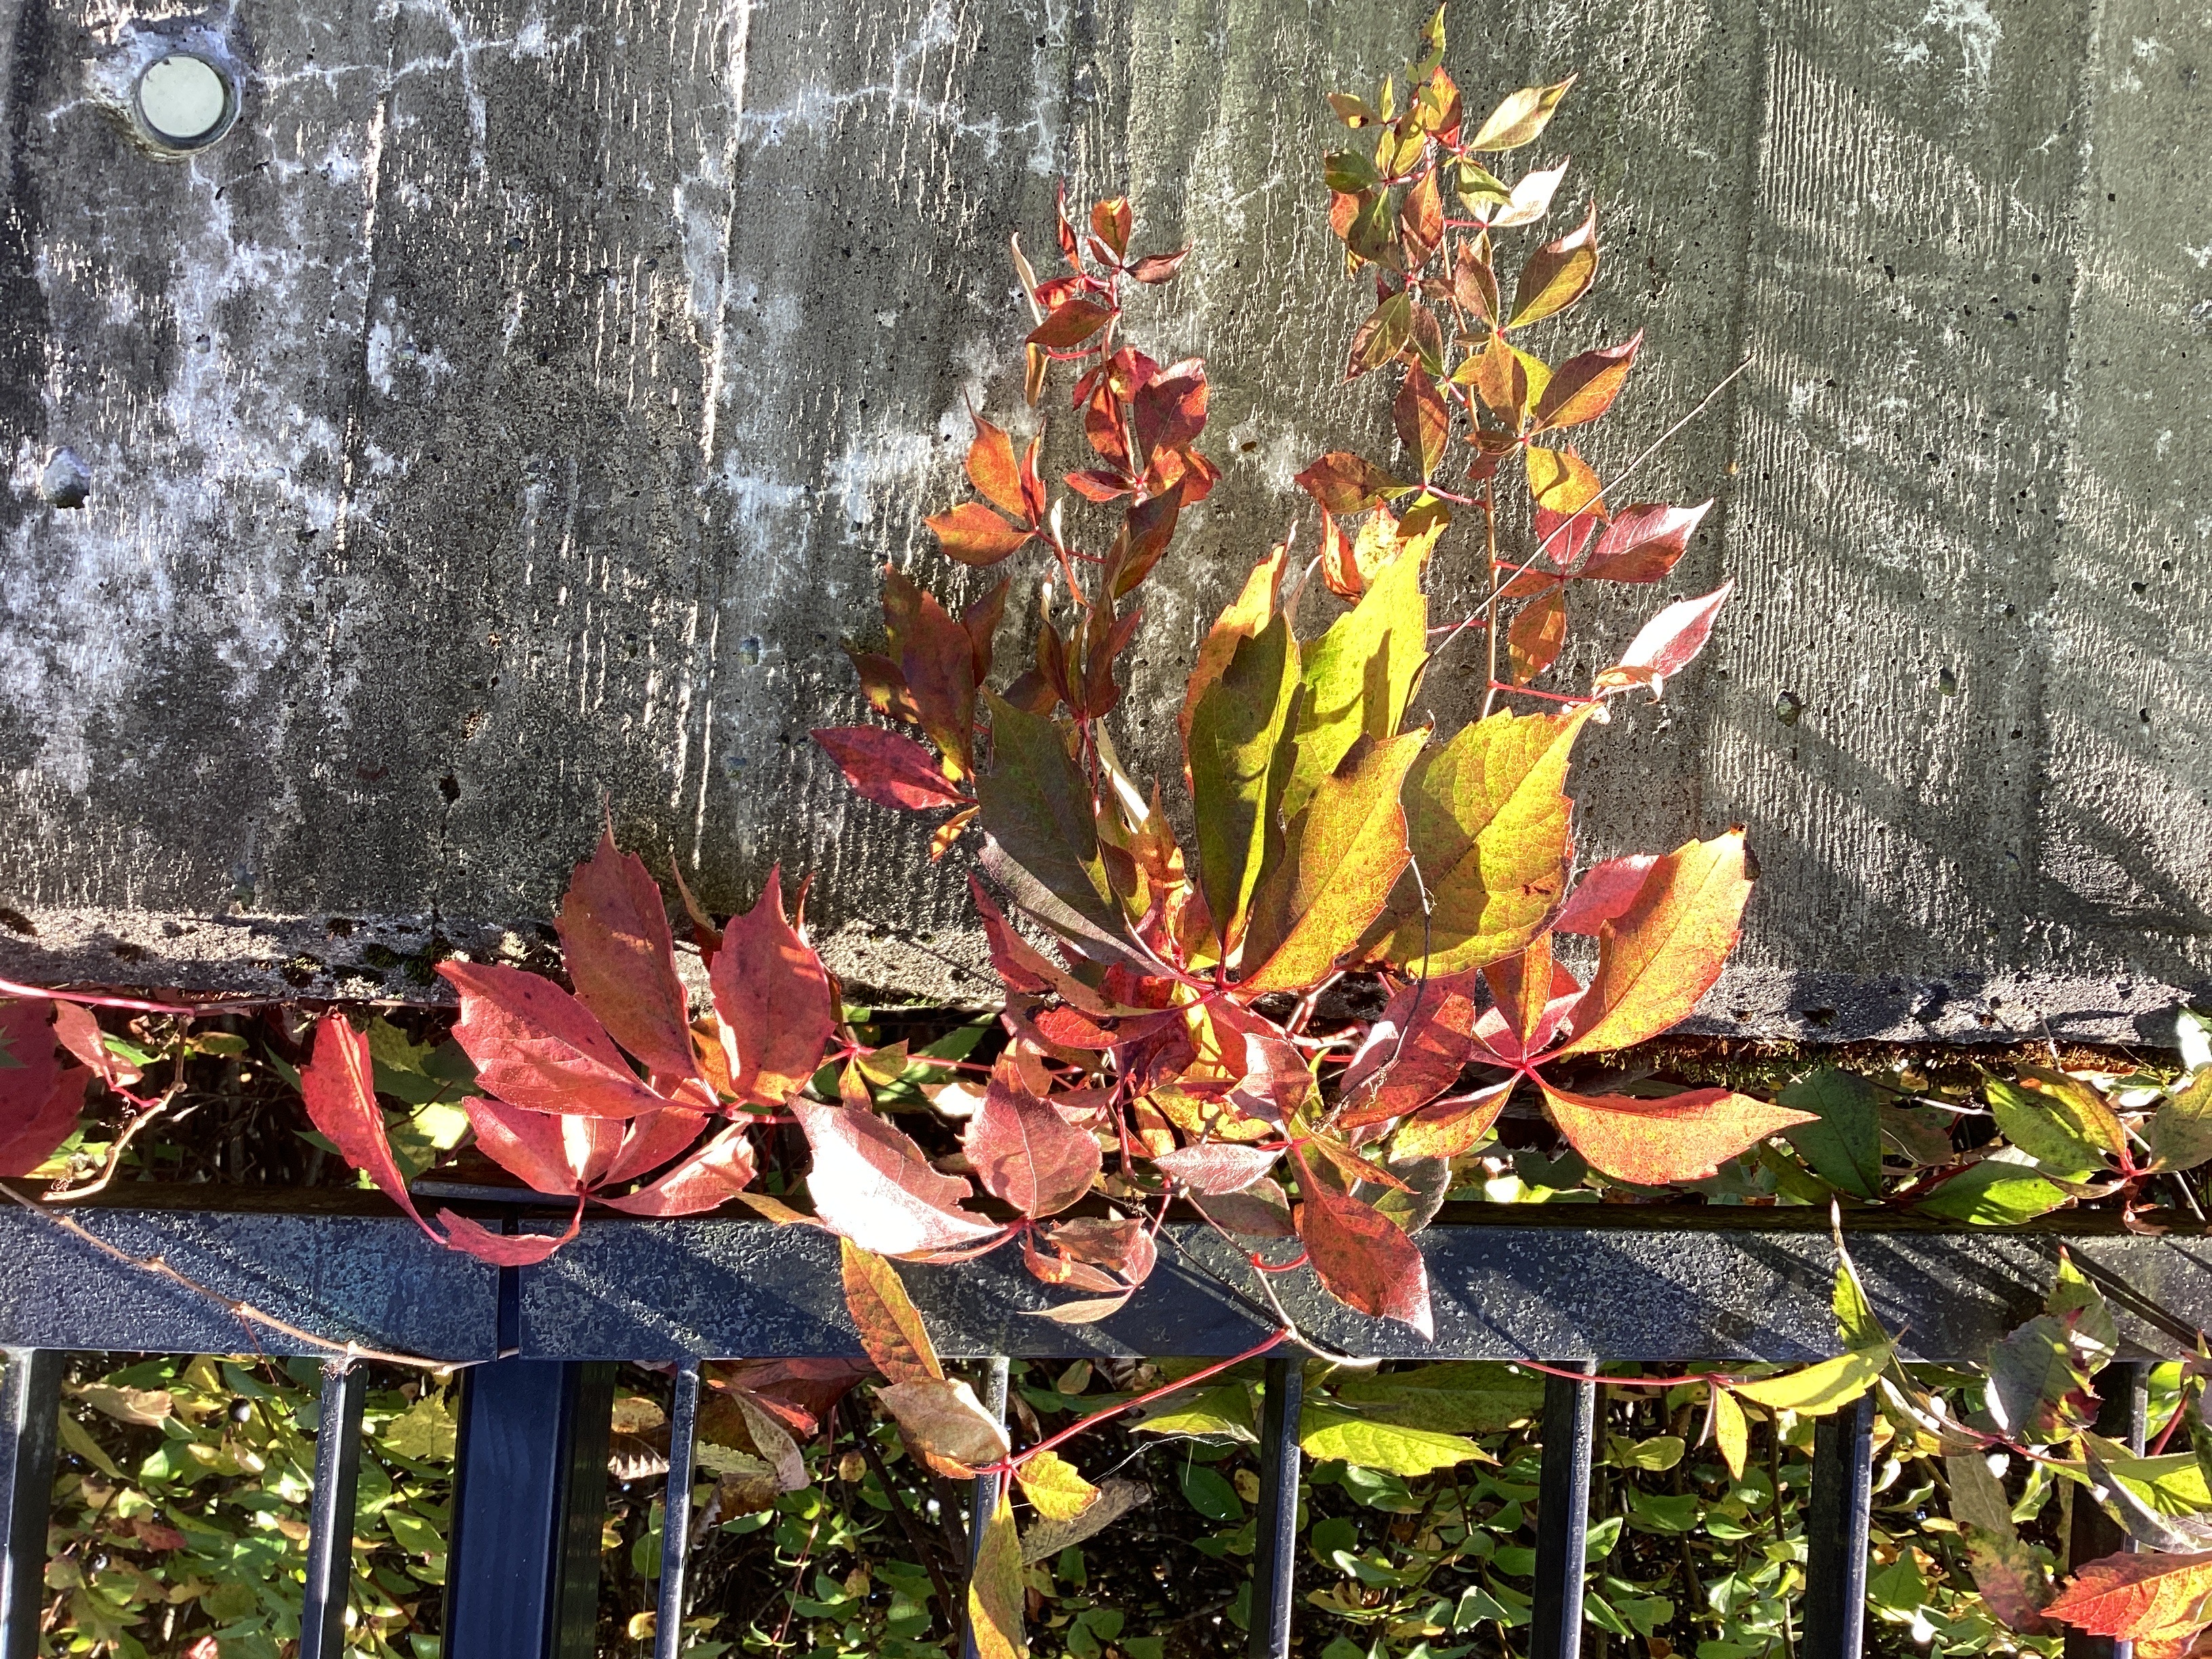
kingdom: Plantae
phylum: Tracheophyta
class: Magnoliopsida
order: Vitales
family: Vitaceae
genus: Parthenocissus
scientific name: Parthenocissus quinquefolia
